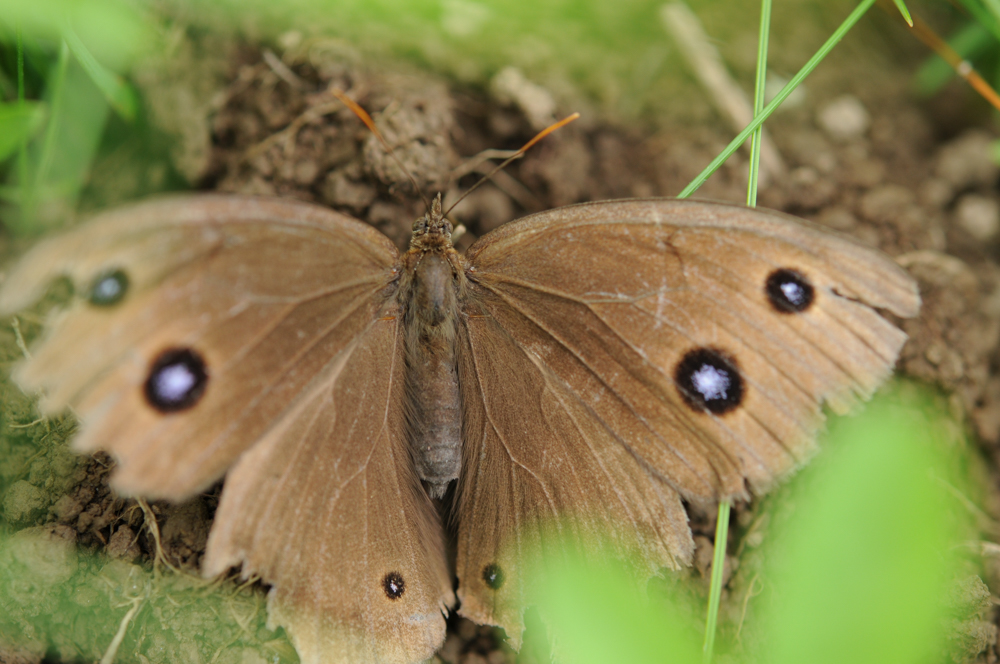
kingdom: Animalia
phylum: Arthropoda
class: Insecta
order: Lepidoptera
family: Nymphalidae
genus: Minois
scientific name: Minois dryas
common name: Dryad
